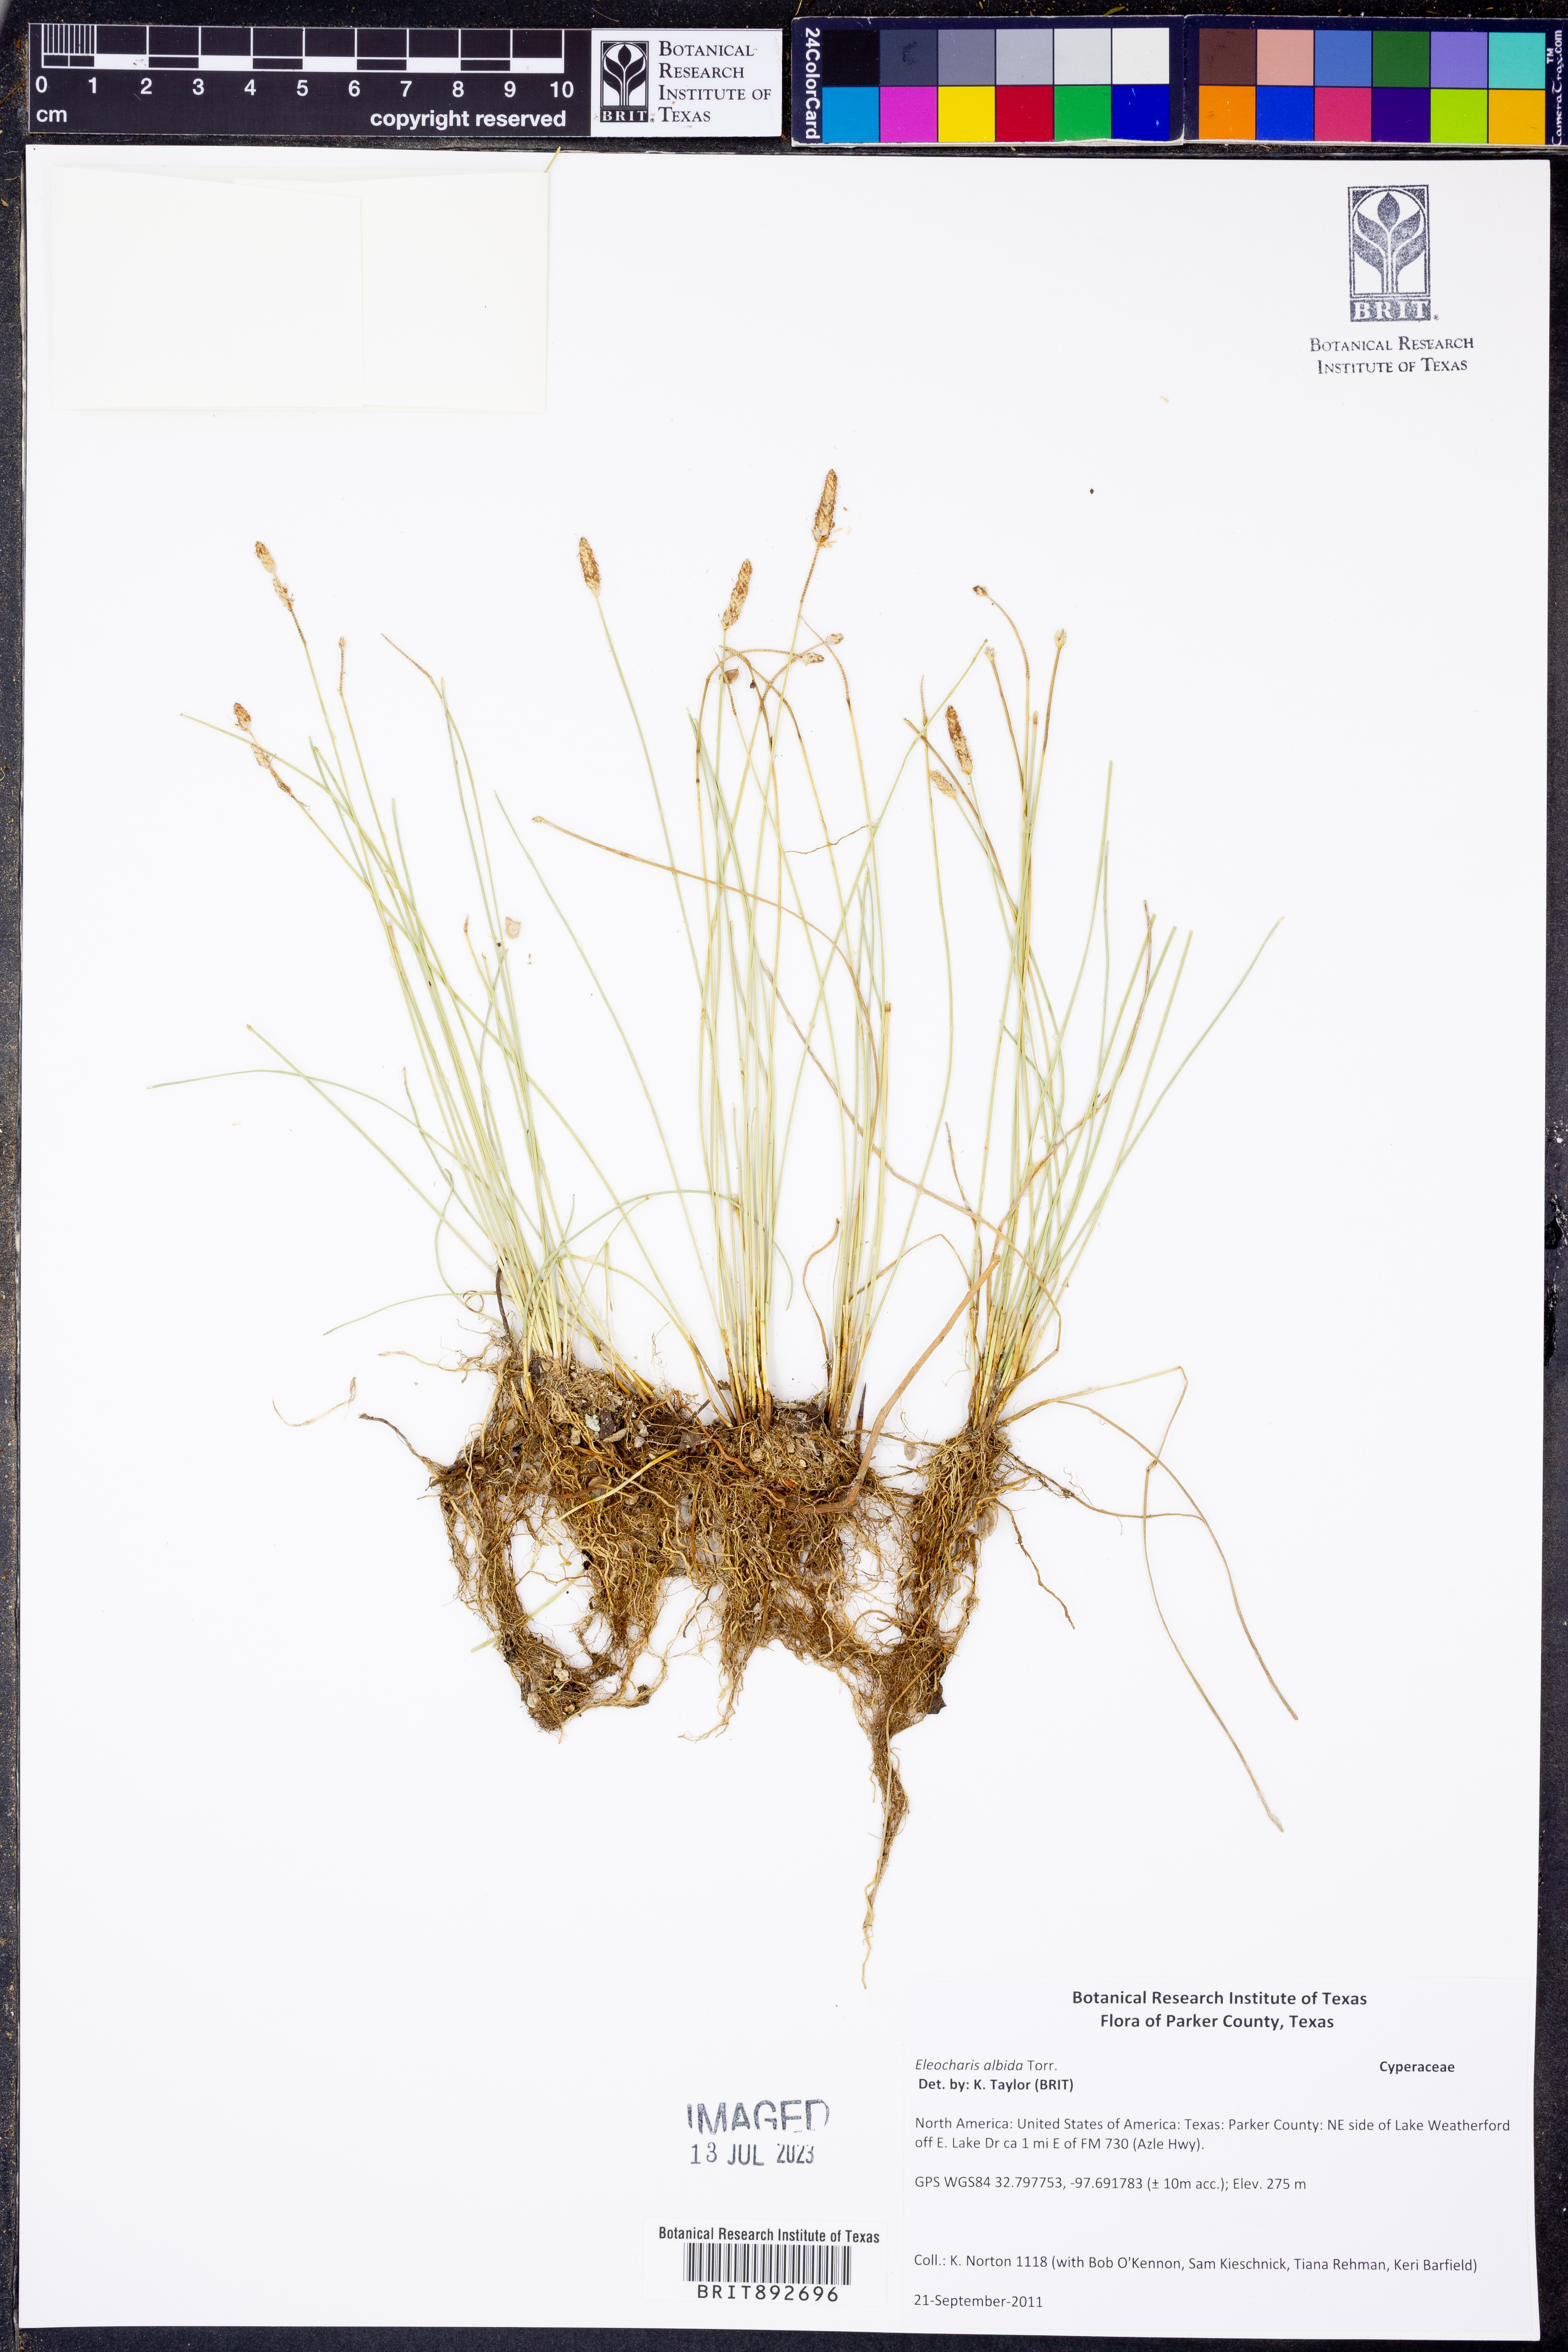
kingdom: Plantae
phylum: Tracheophyta
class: Liliopsida
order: Poales
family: Cyperaceae
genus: Eleocharis
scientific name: Eleocharis albida
